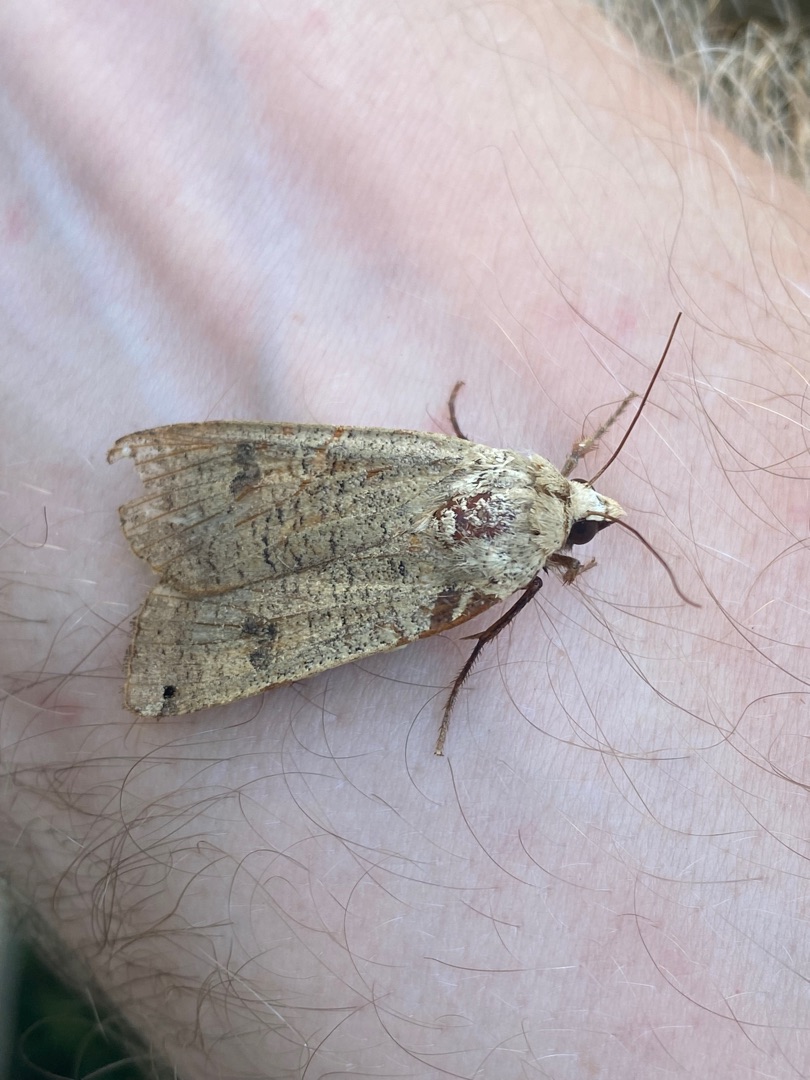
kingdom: Animalia
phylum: Arthropoda
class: Insecta
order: Lepidoptera
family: Noctuidae
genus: Noctua
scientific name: Noctua pronuba
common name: Stor smutugle
